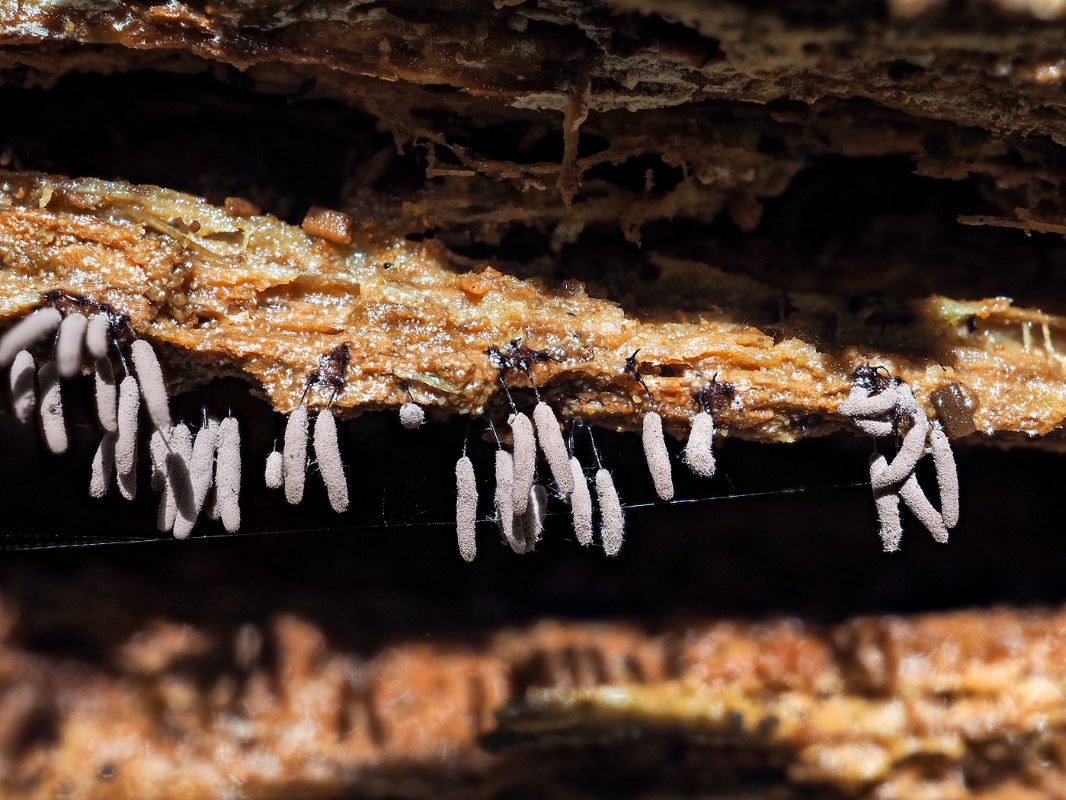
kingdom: Protozoa
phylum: Mycetozoa
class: Myxomycetes
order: Stemonitidales
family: Stemonitidaceae
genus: Stemonitopsis
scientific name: Stemonitopsis hyperopta
